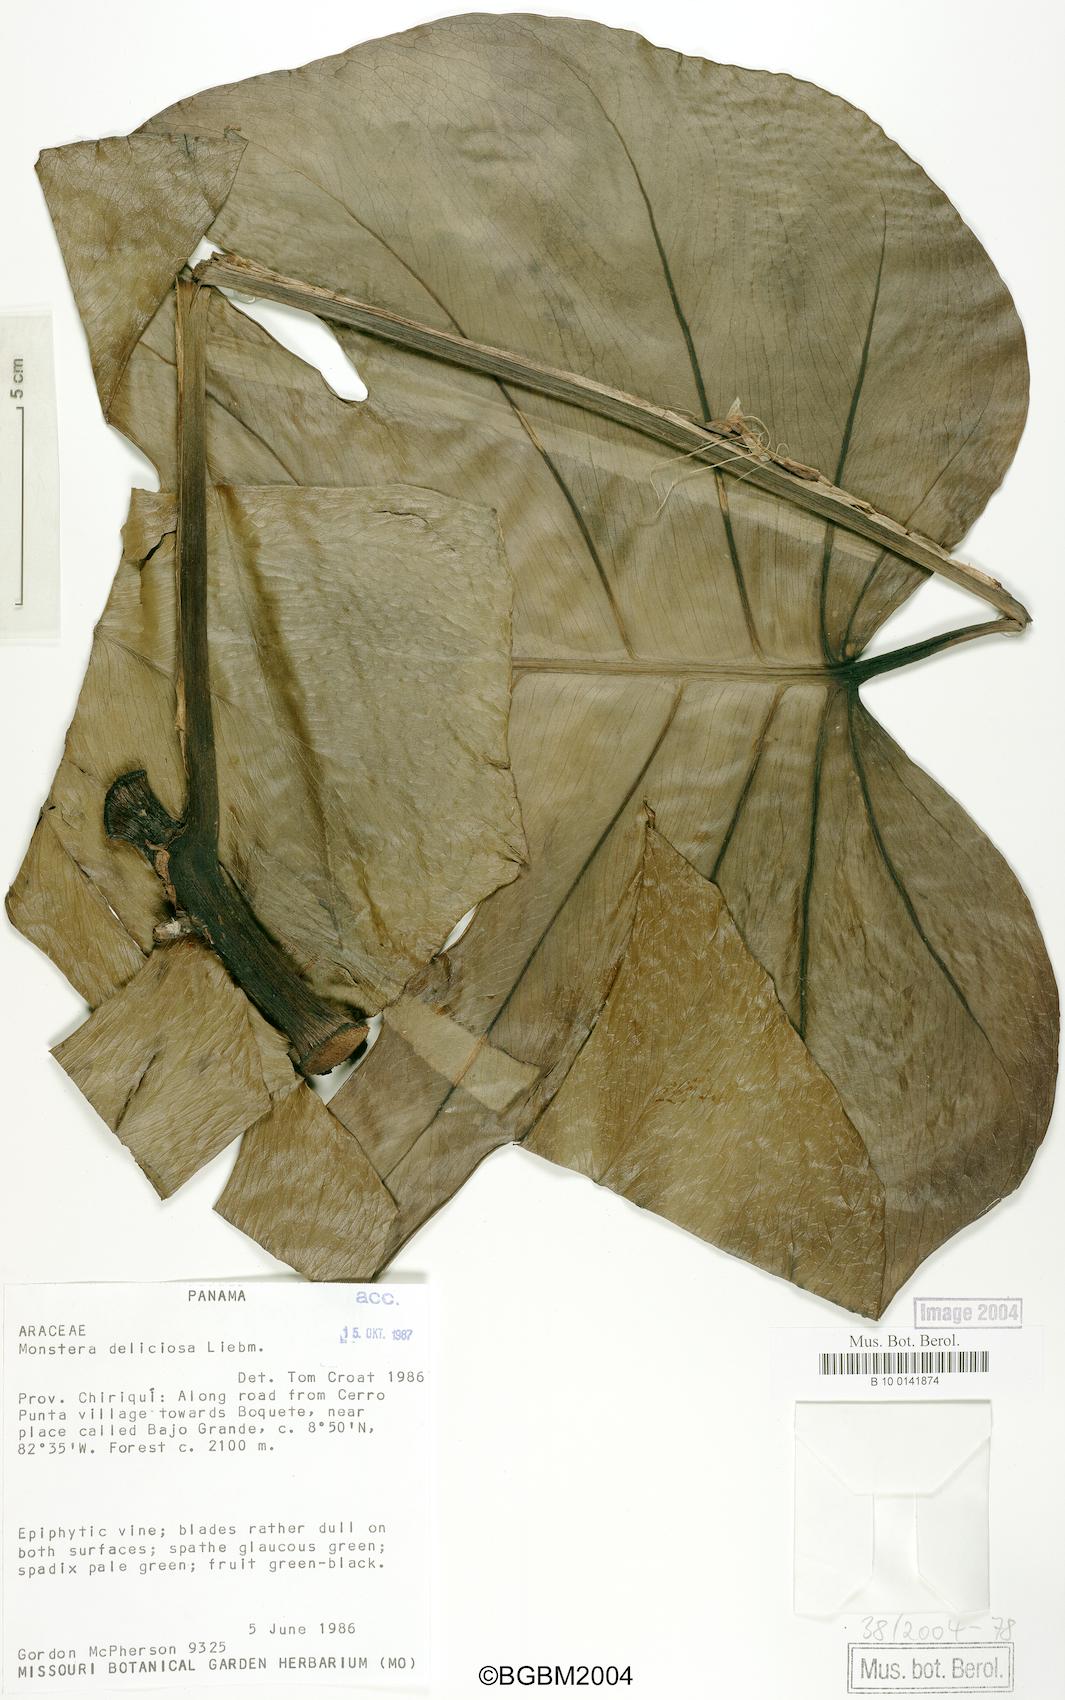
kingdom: Plantae
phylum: Tracheophyta
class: Liliopsida
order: Alismatales
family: Araceae
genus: Monstera
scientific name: Monstera deliciosa
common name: Cut-leaf-philodendron
